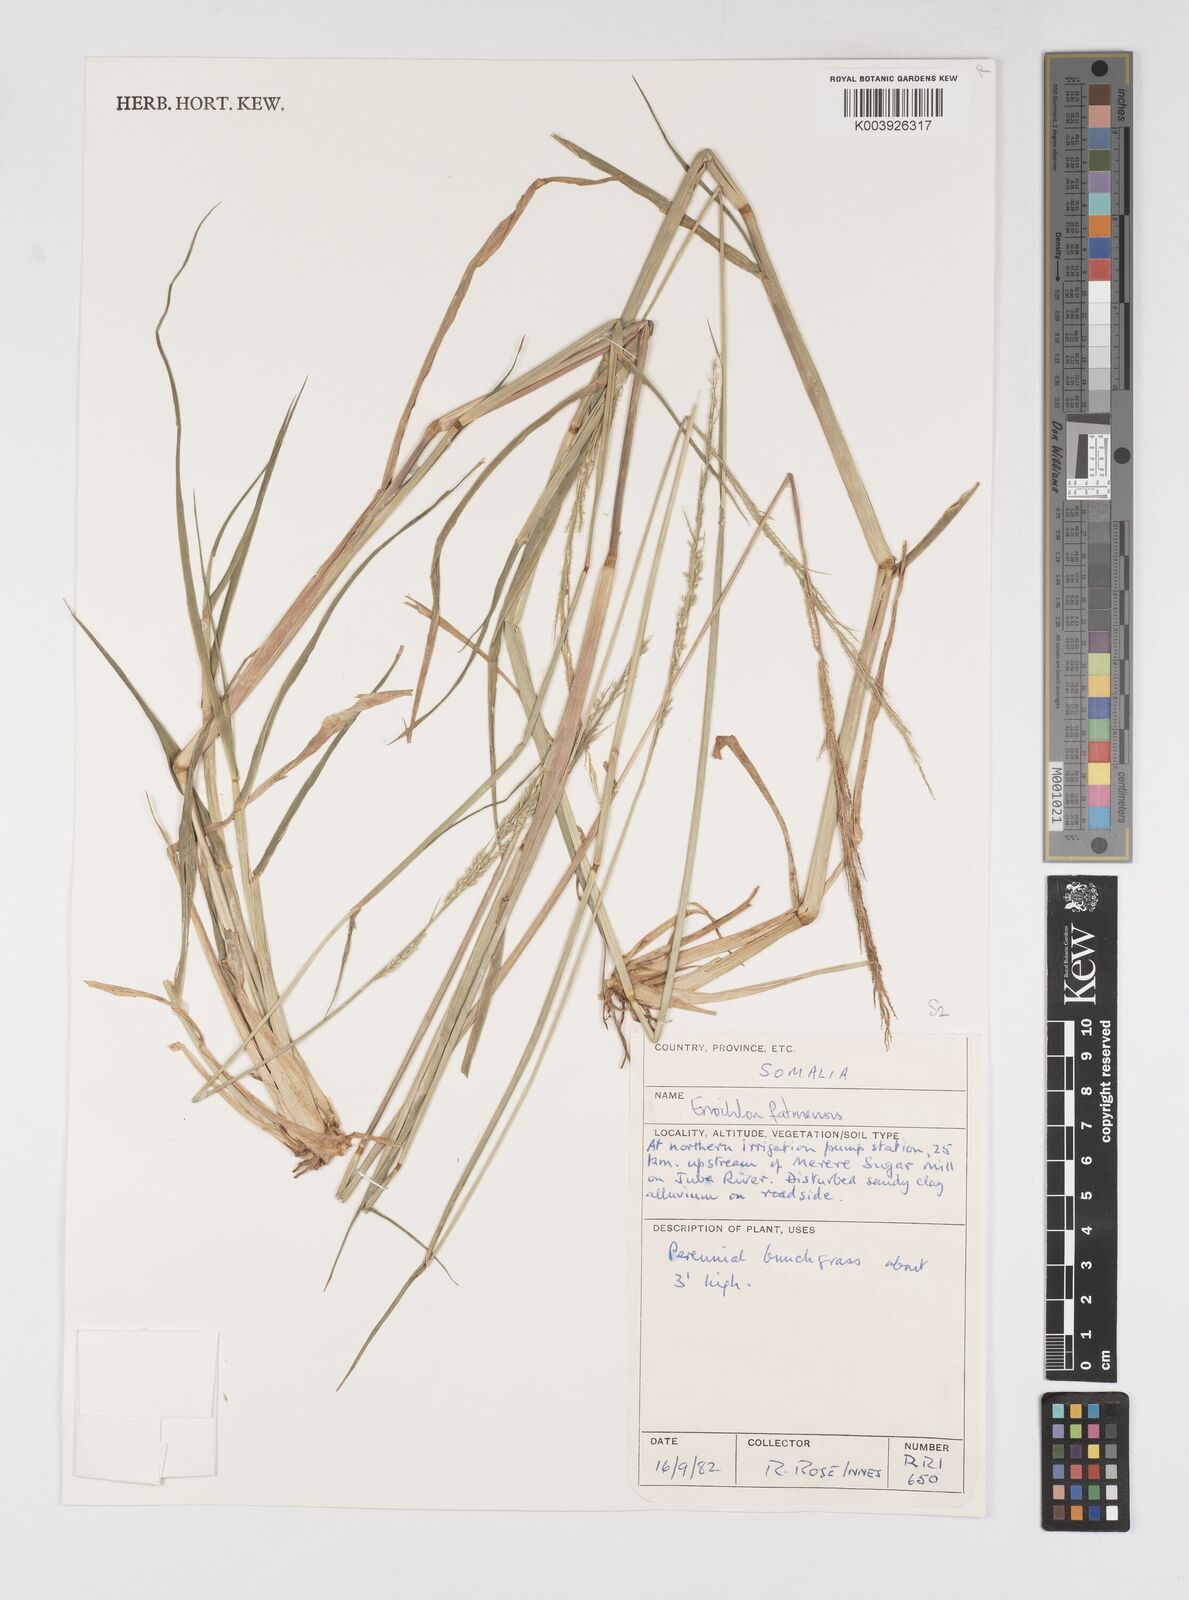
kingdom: Plantae
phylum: Tracheophyta
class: Liliopsida
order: Poales
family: Poaceae
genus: Eriochloa
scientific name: Eriochloa barbatus
